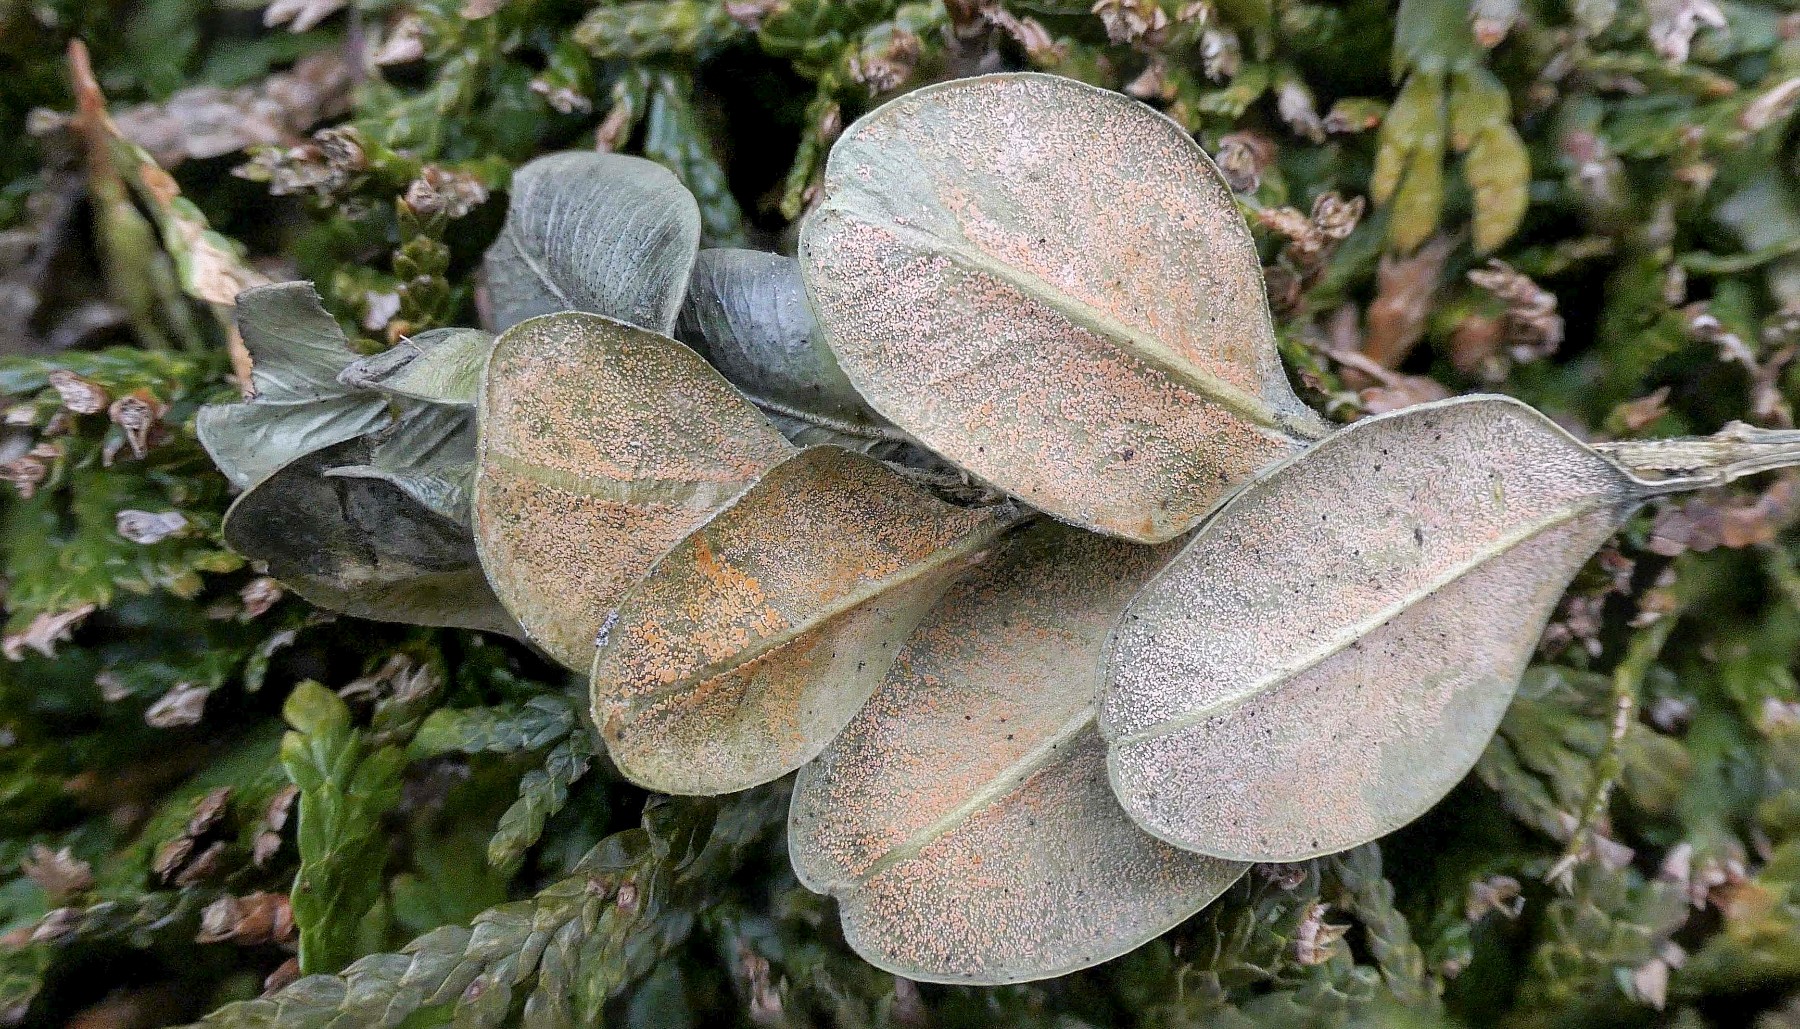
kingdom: Fungi
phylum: Ascomycota
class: Sordariomycetes
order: Hypocreales
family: Nectriaceae
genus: Pseudonectria
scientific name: Pseudonectria buxi
